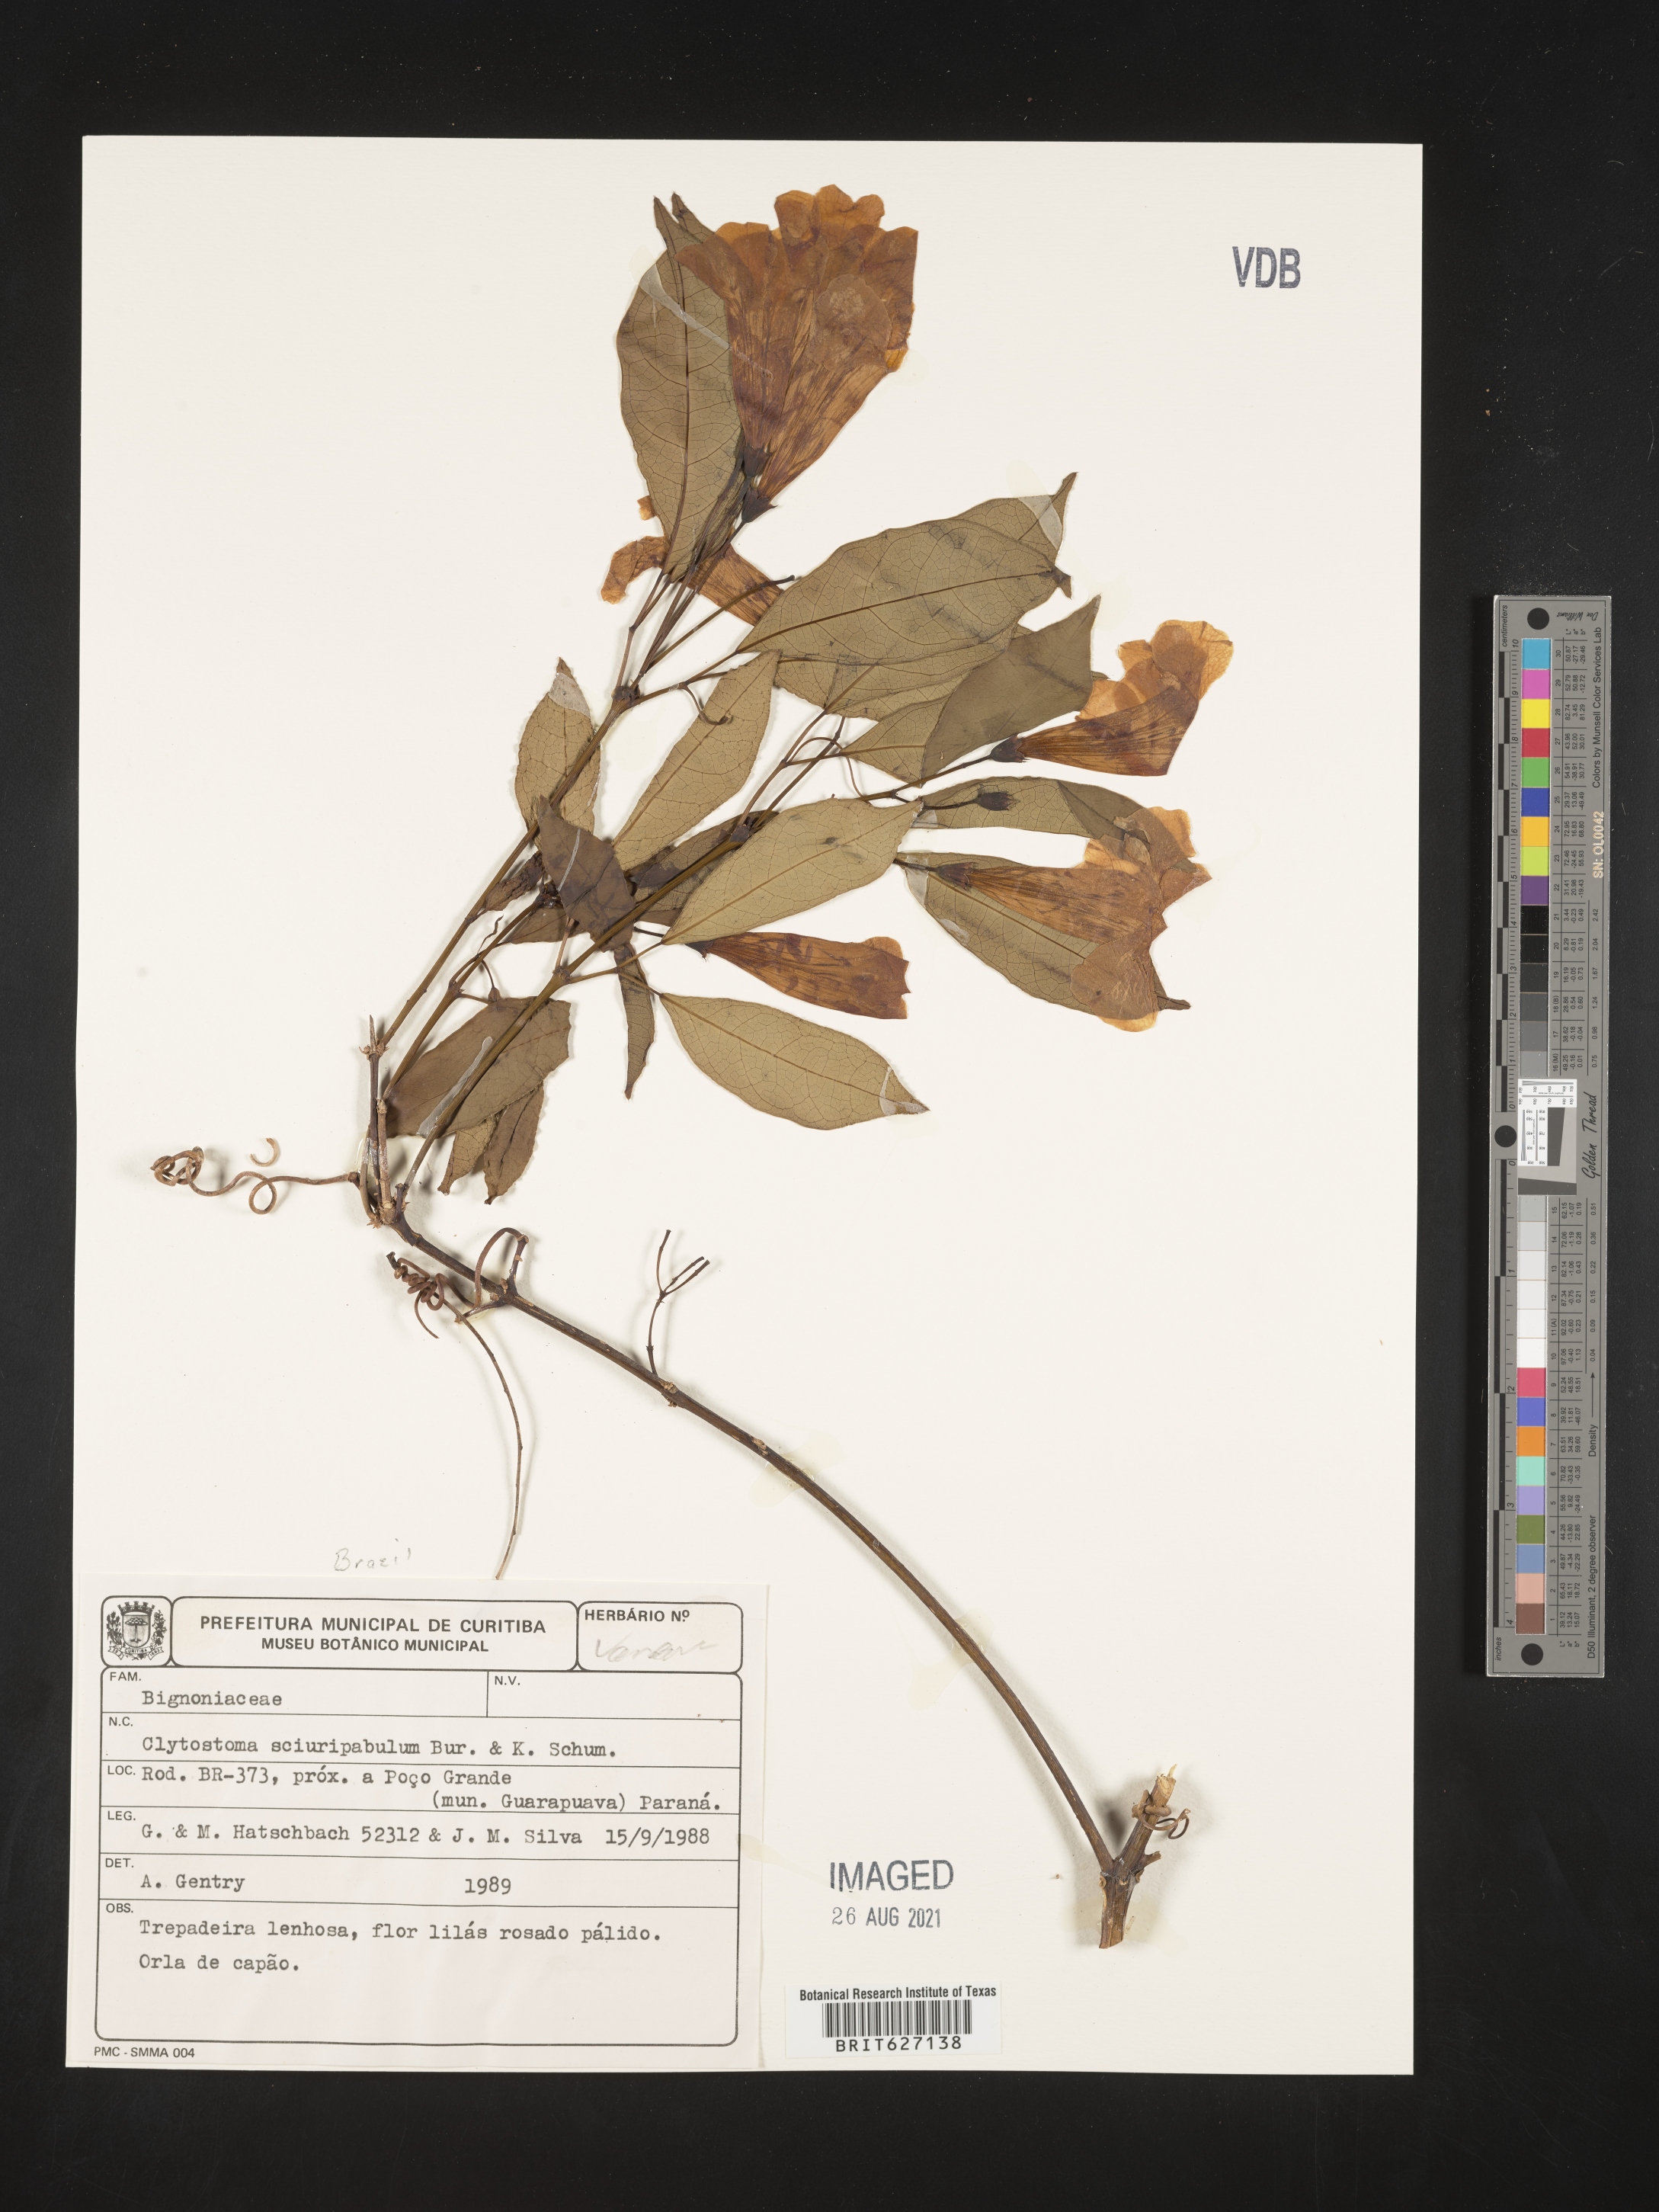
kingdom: Plantae
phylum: Tracheophyta
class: Magnoliopsida
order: Lamiales
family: Bignoniaceae
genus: Bignonia
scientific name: Bignonia sciruipabula
